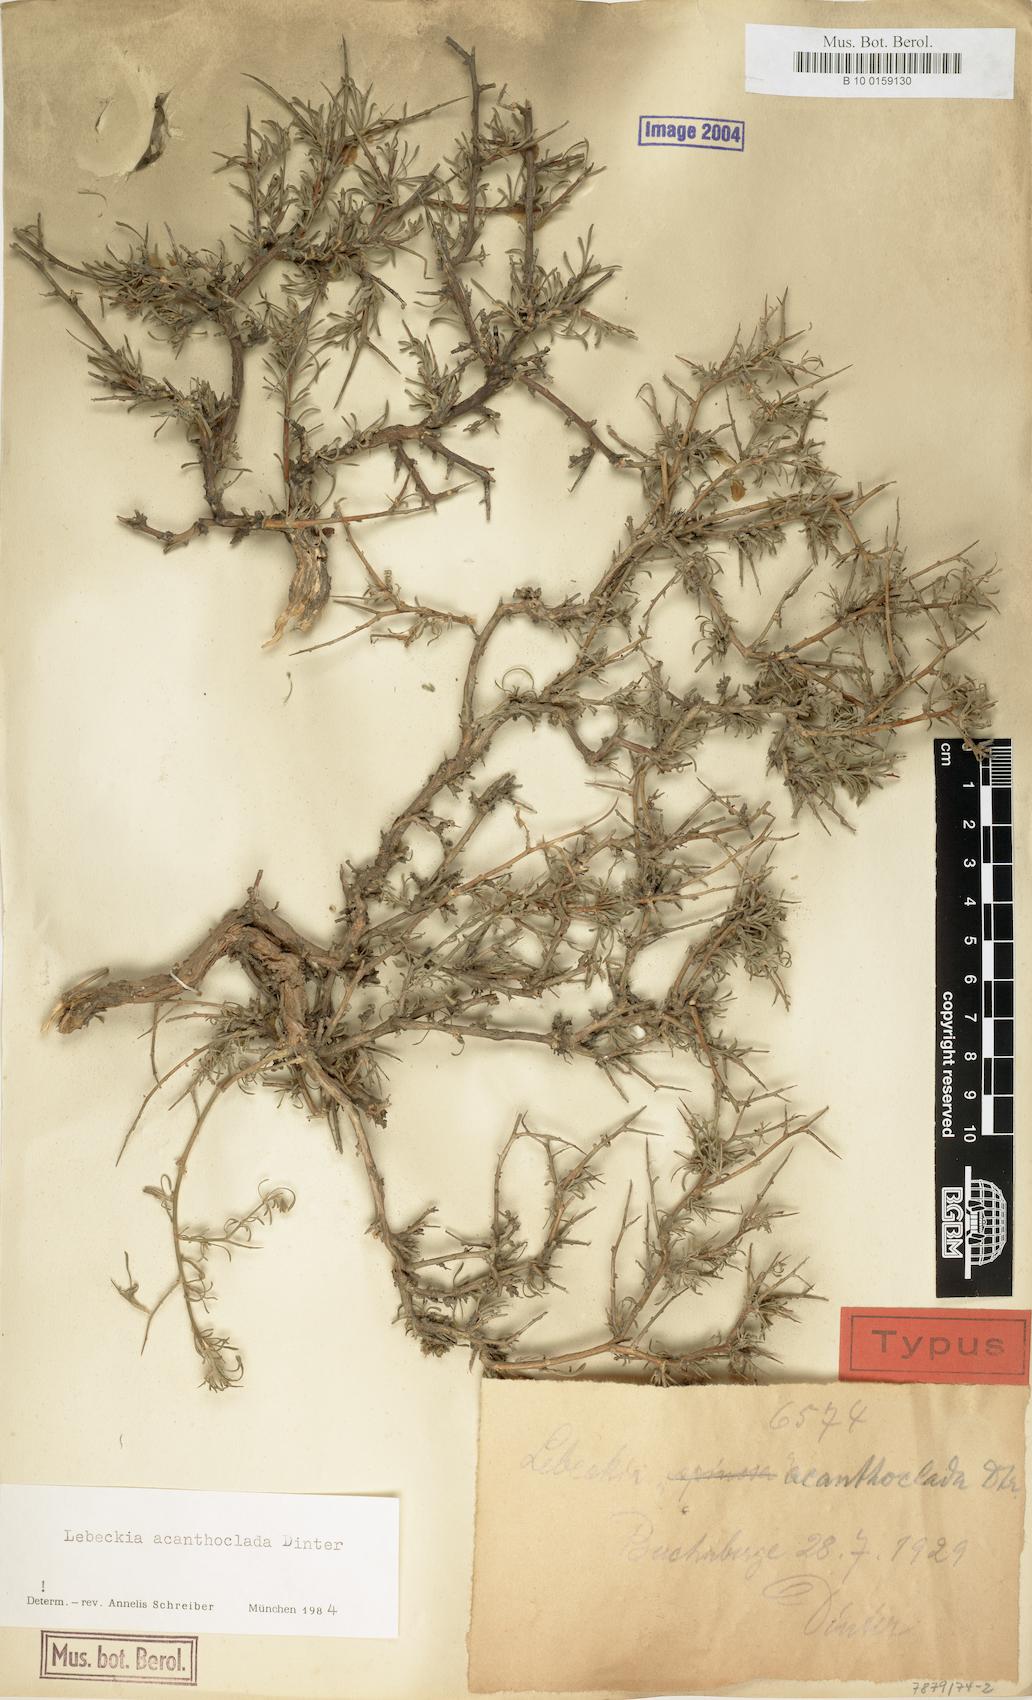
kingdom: Plantae
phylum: Tracheophyta
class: Magnoliopsida
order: Fabales
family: Fabaceae
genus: Calobota
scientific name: Calobota acanthoclada
